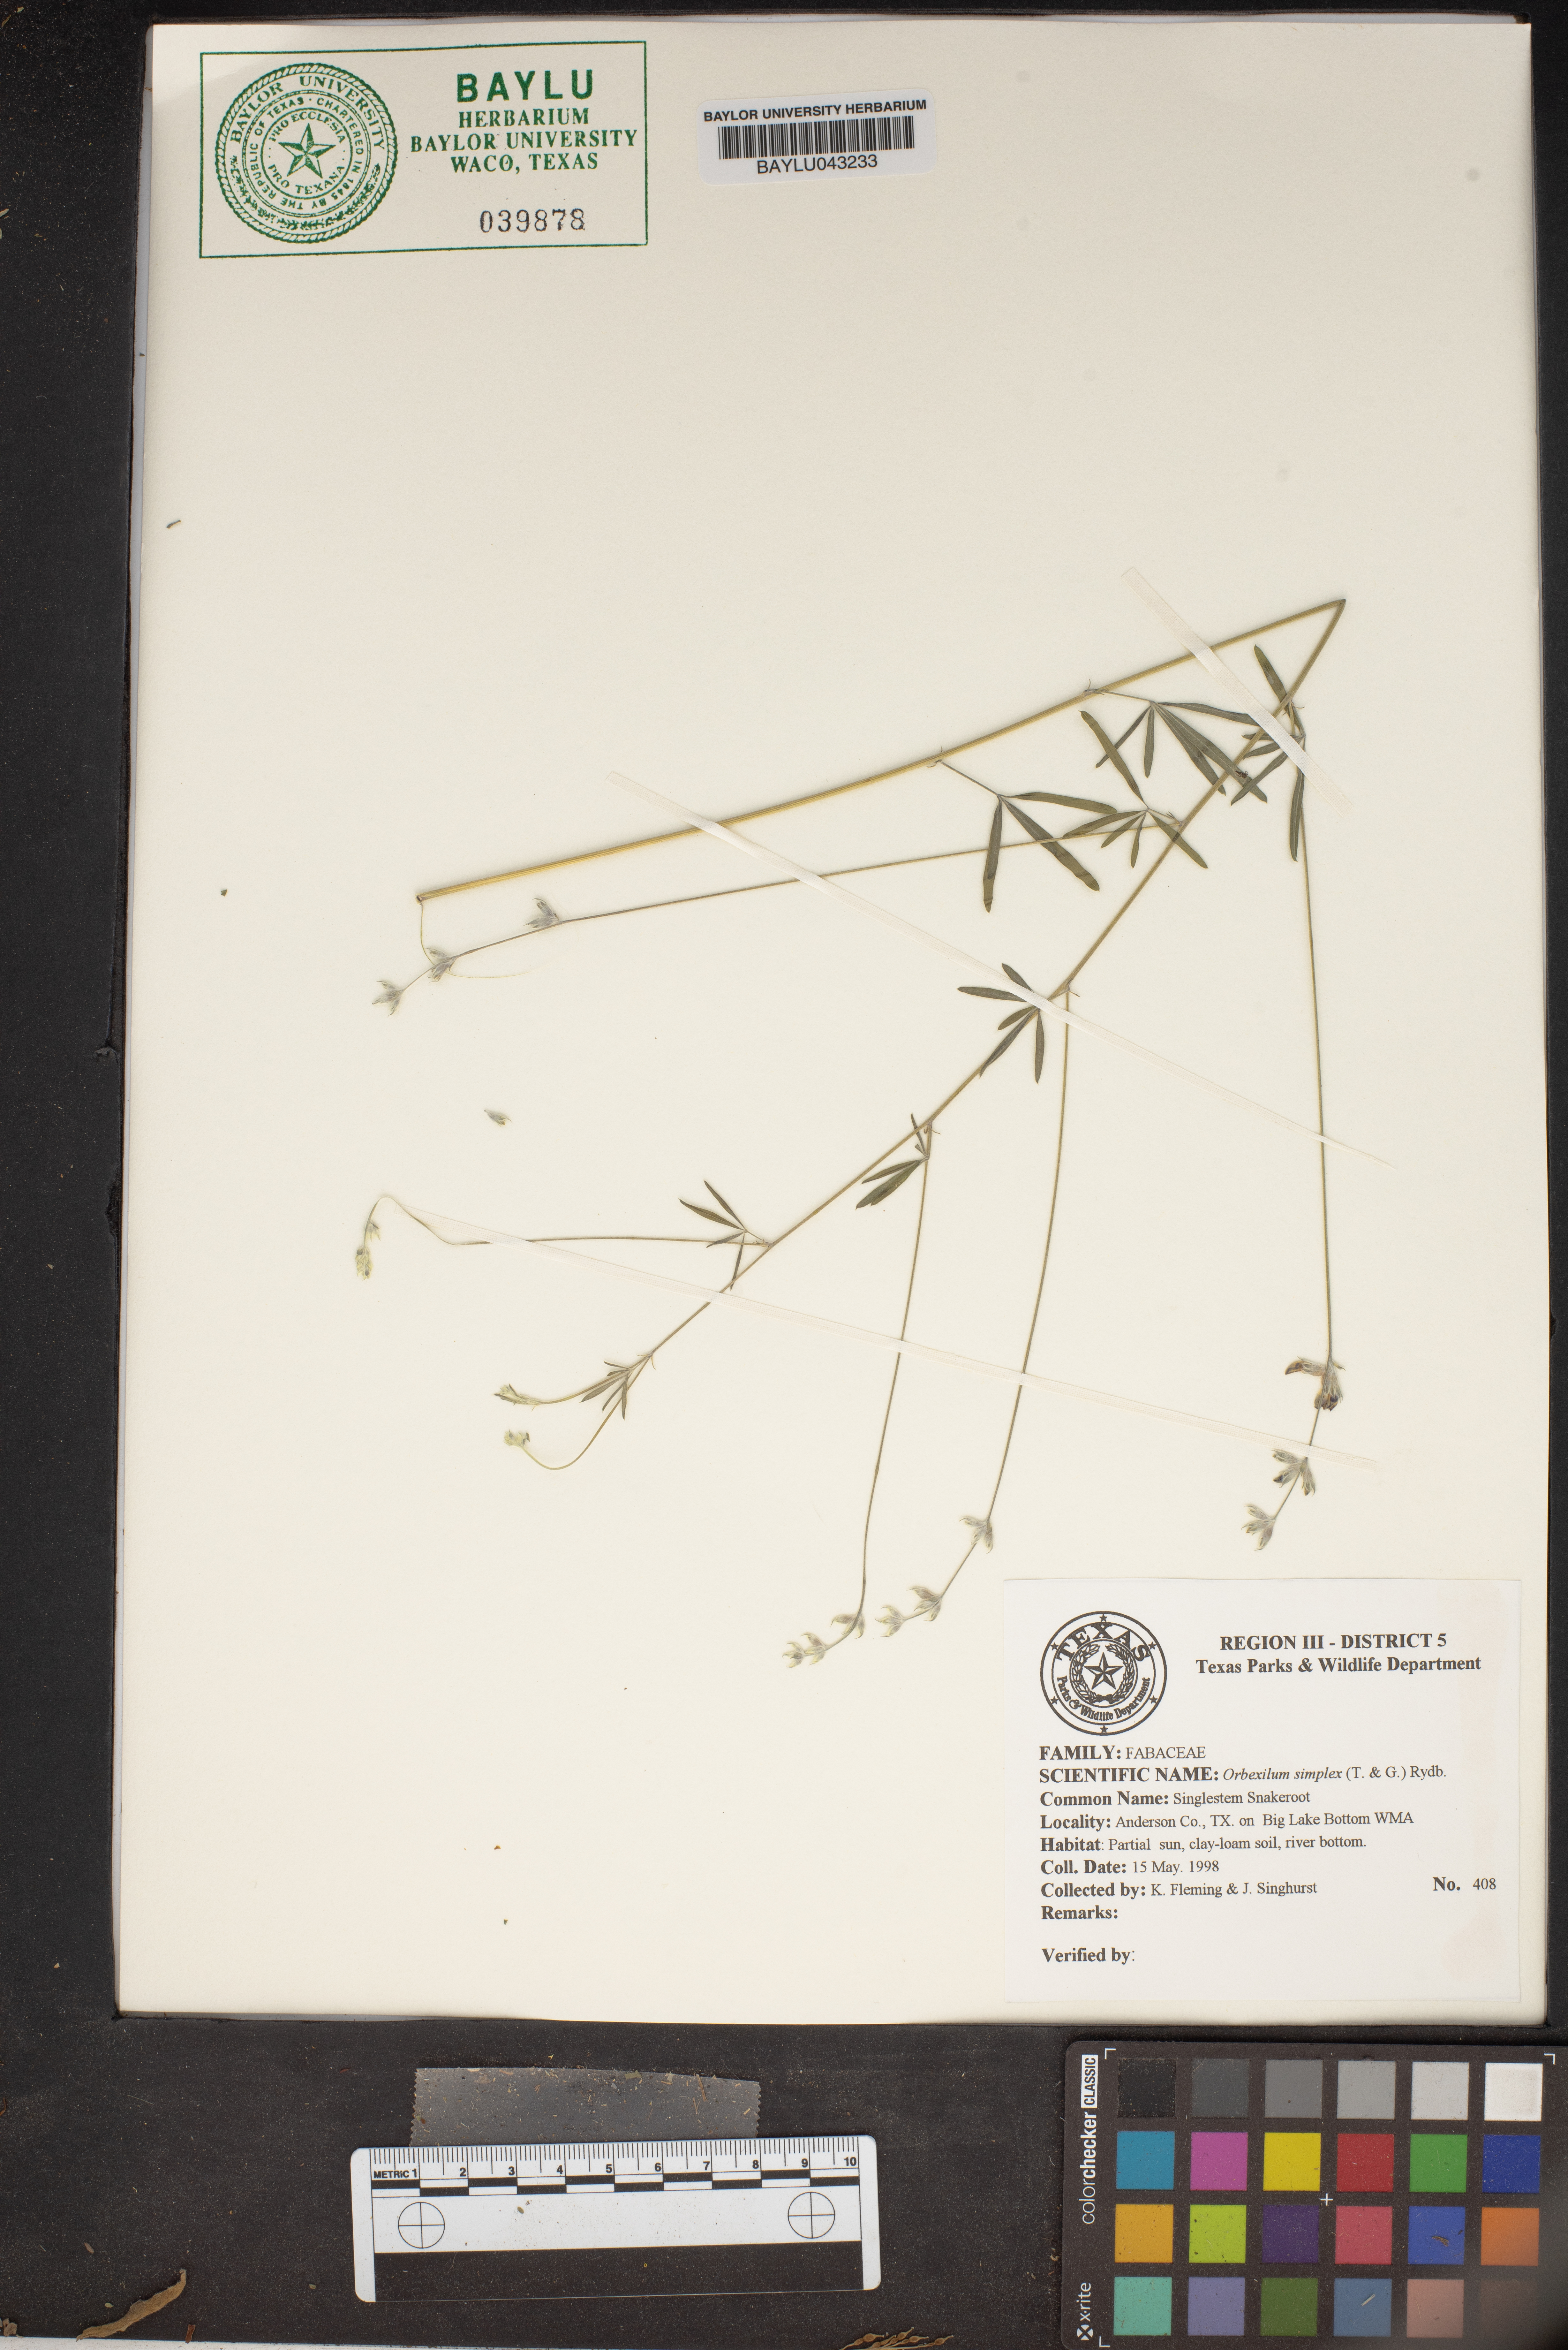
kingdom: Plantae
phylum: Tracheophyta
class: Magnoliopsida
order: Fabales
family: Fabaceae
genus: Orbexilum
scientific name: Orbexilum simplex
